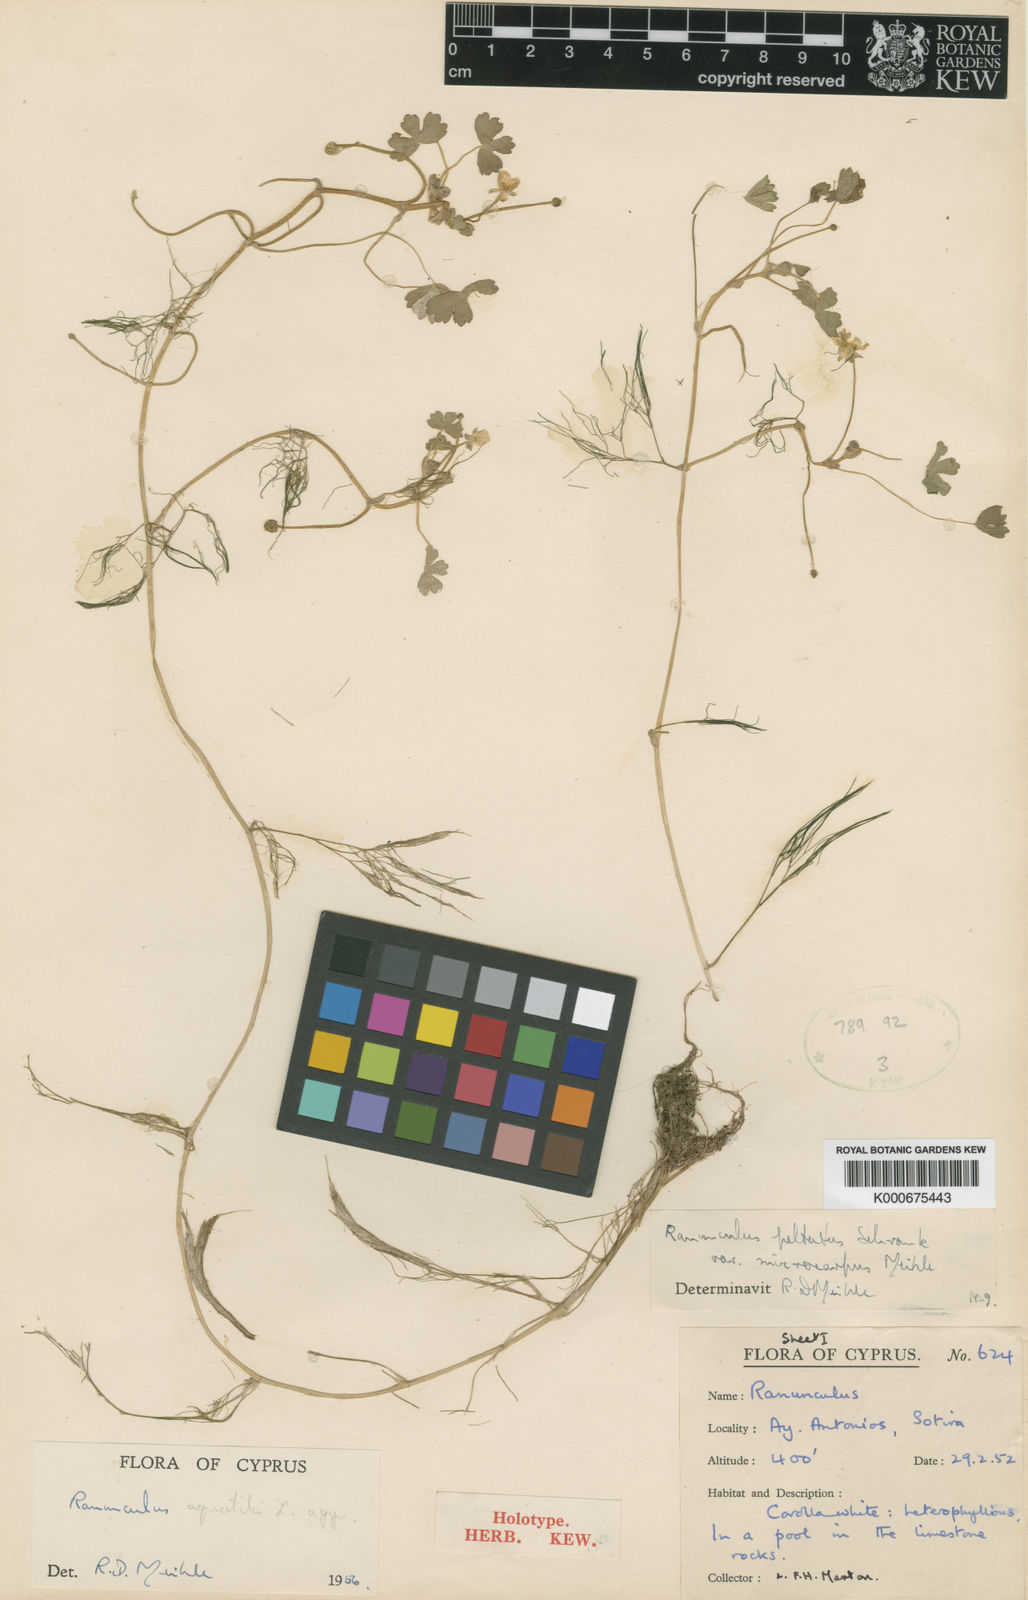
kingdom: Plantae
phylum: Tracheophyta
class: Magnoliopsida
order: Ranunculales
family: Ranunculaceae
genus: Ranunculus
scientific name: Ranunculus peltatus
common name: Pond water-crowfoot
